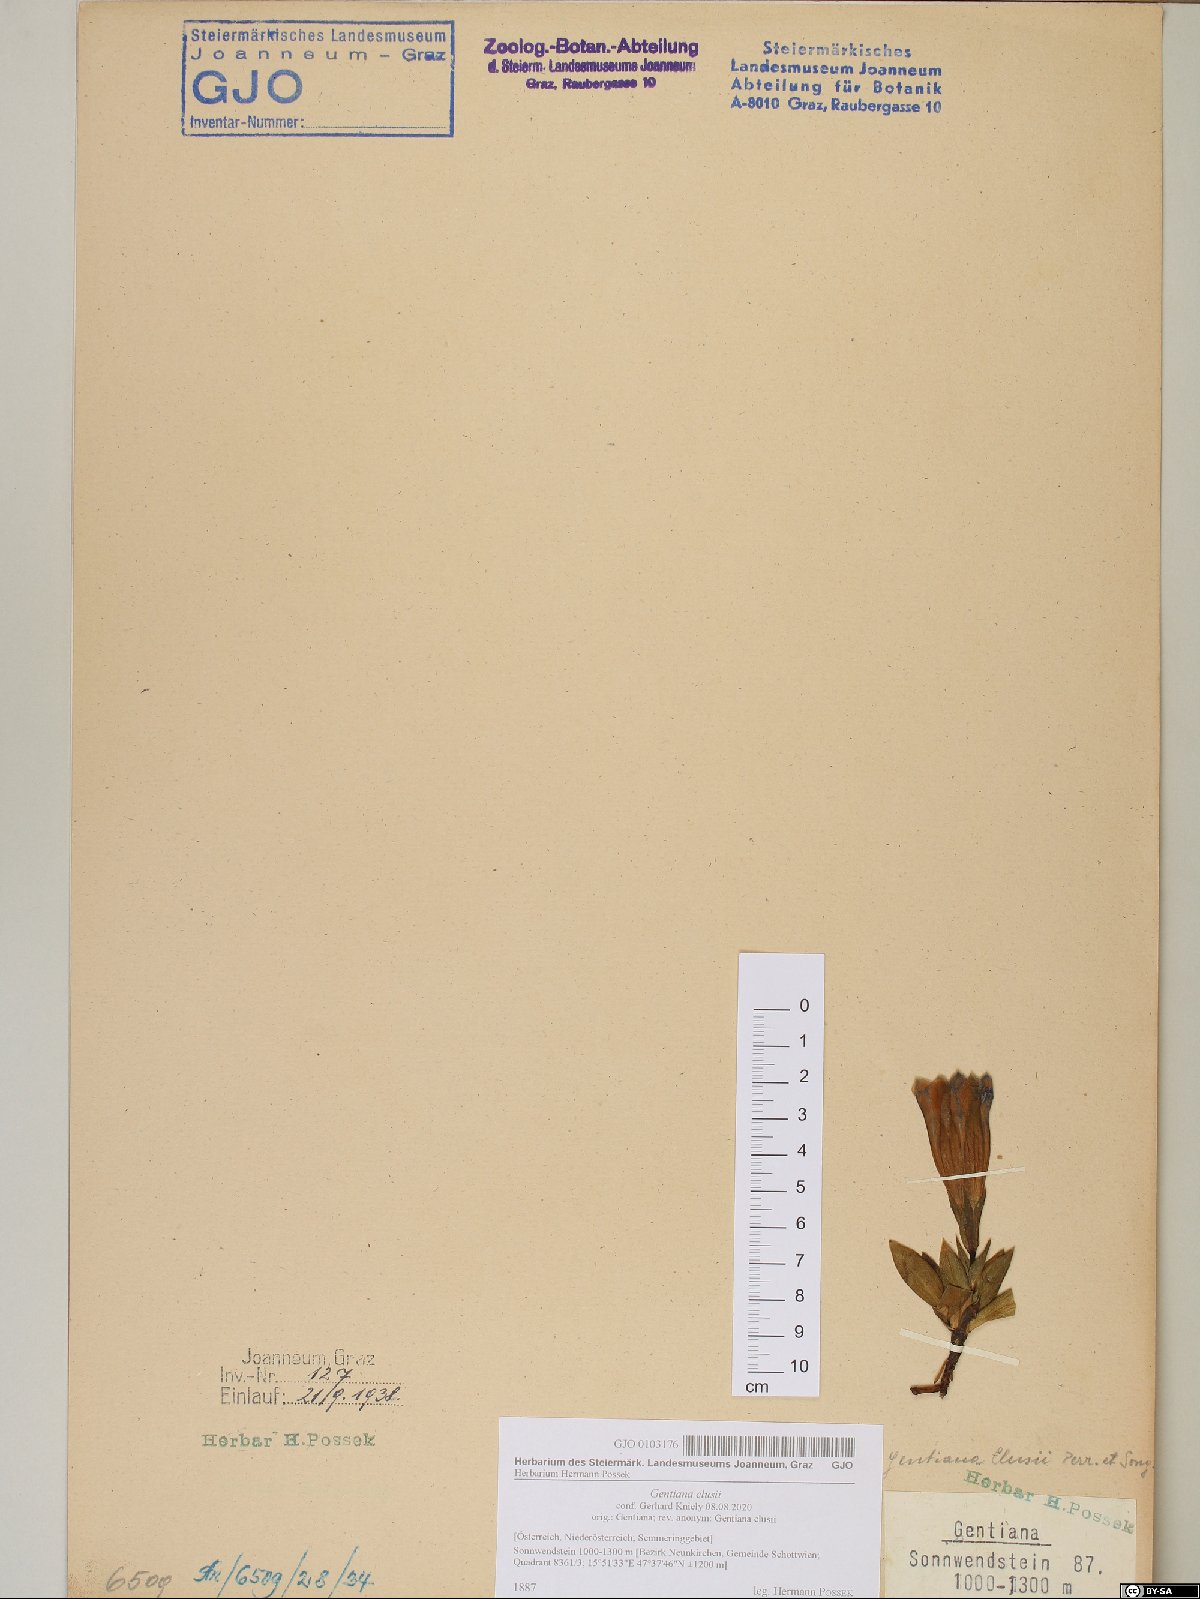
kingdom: Plantae
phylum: Tracheophyta
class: Magnoliopsida
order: Gentianales
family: Gentianaceae
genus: Gentiana
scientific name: Gentiana clusii
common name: Trumpet gentian
